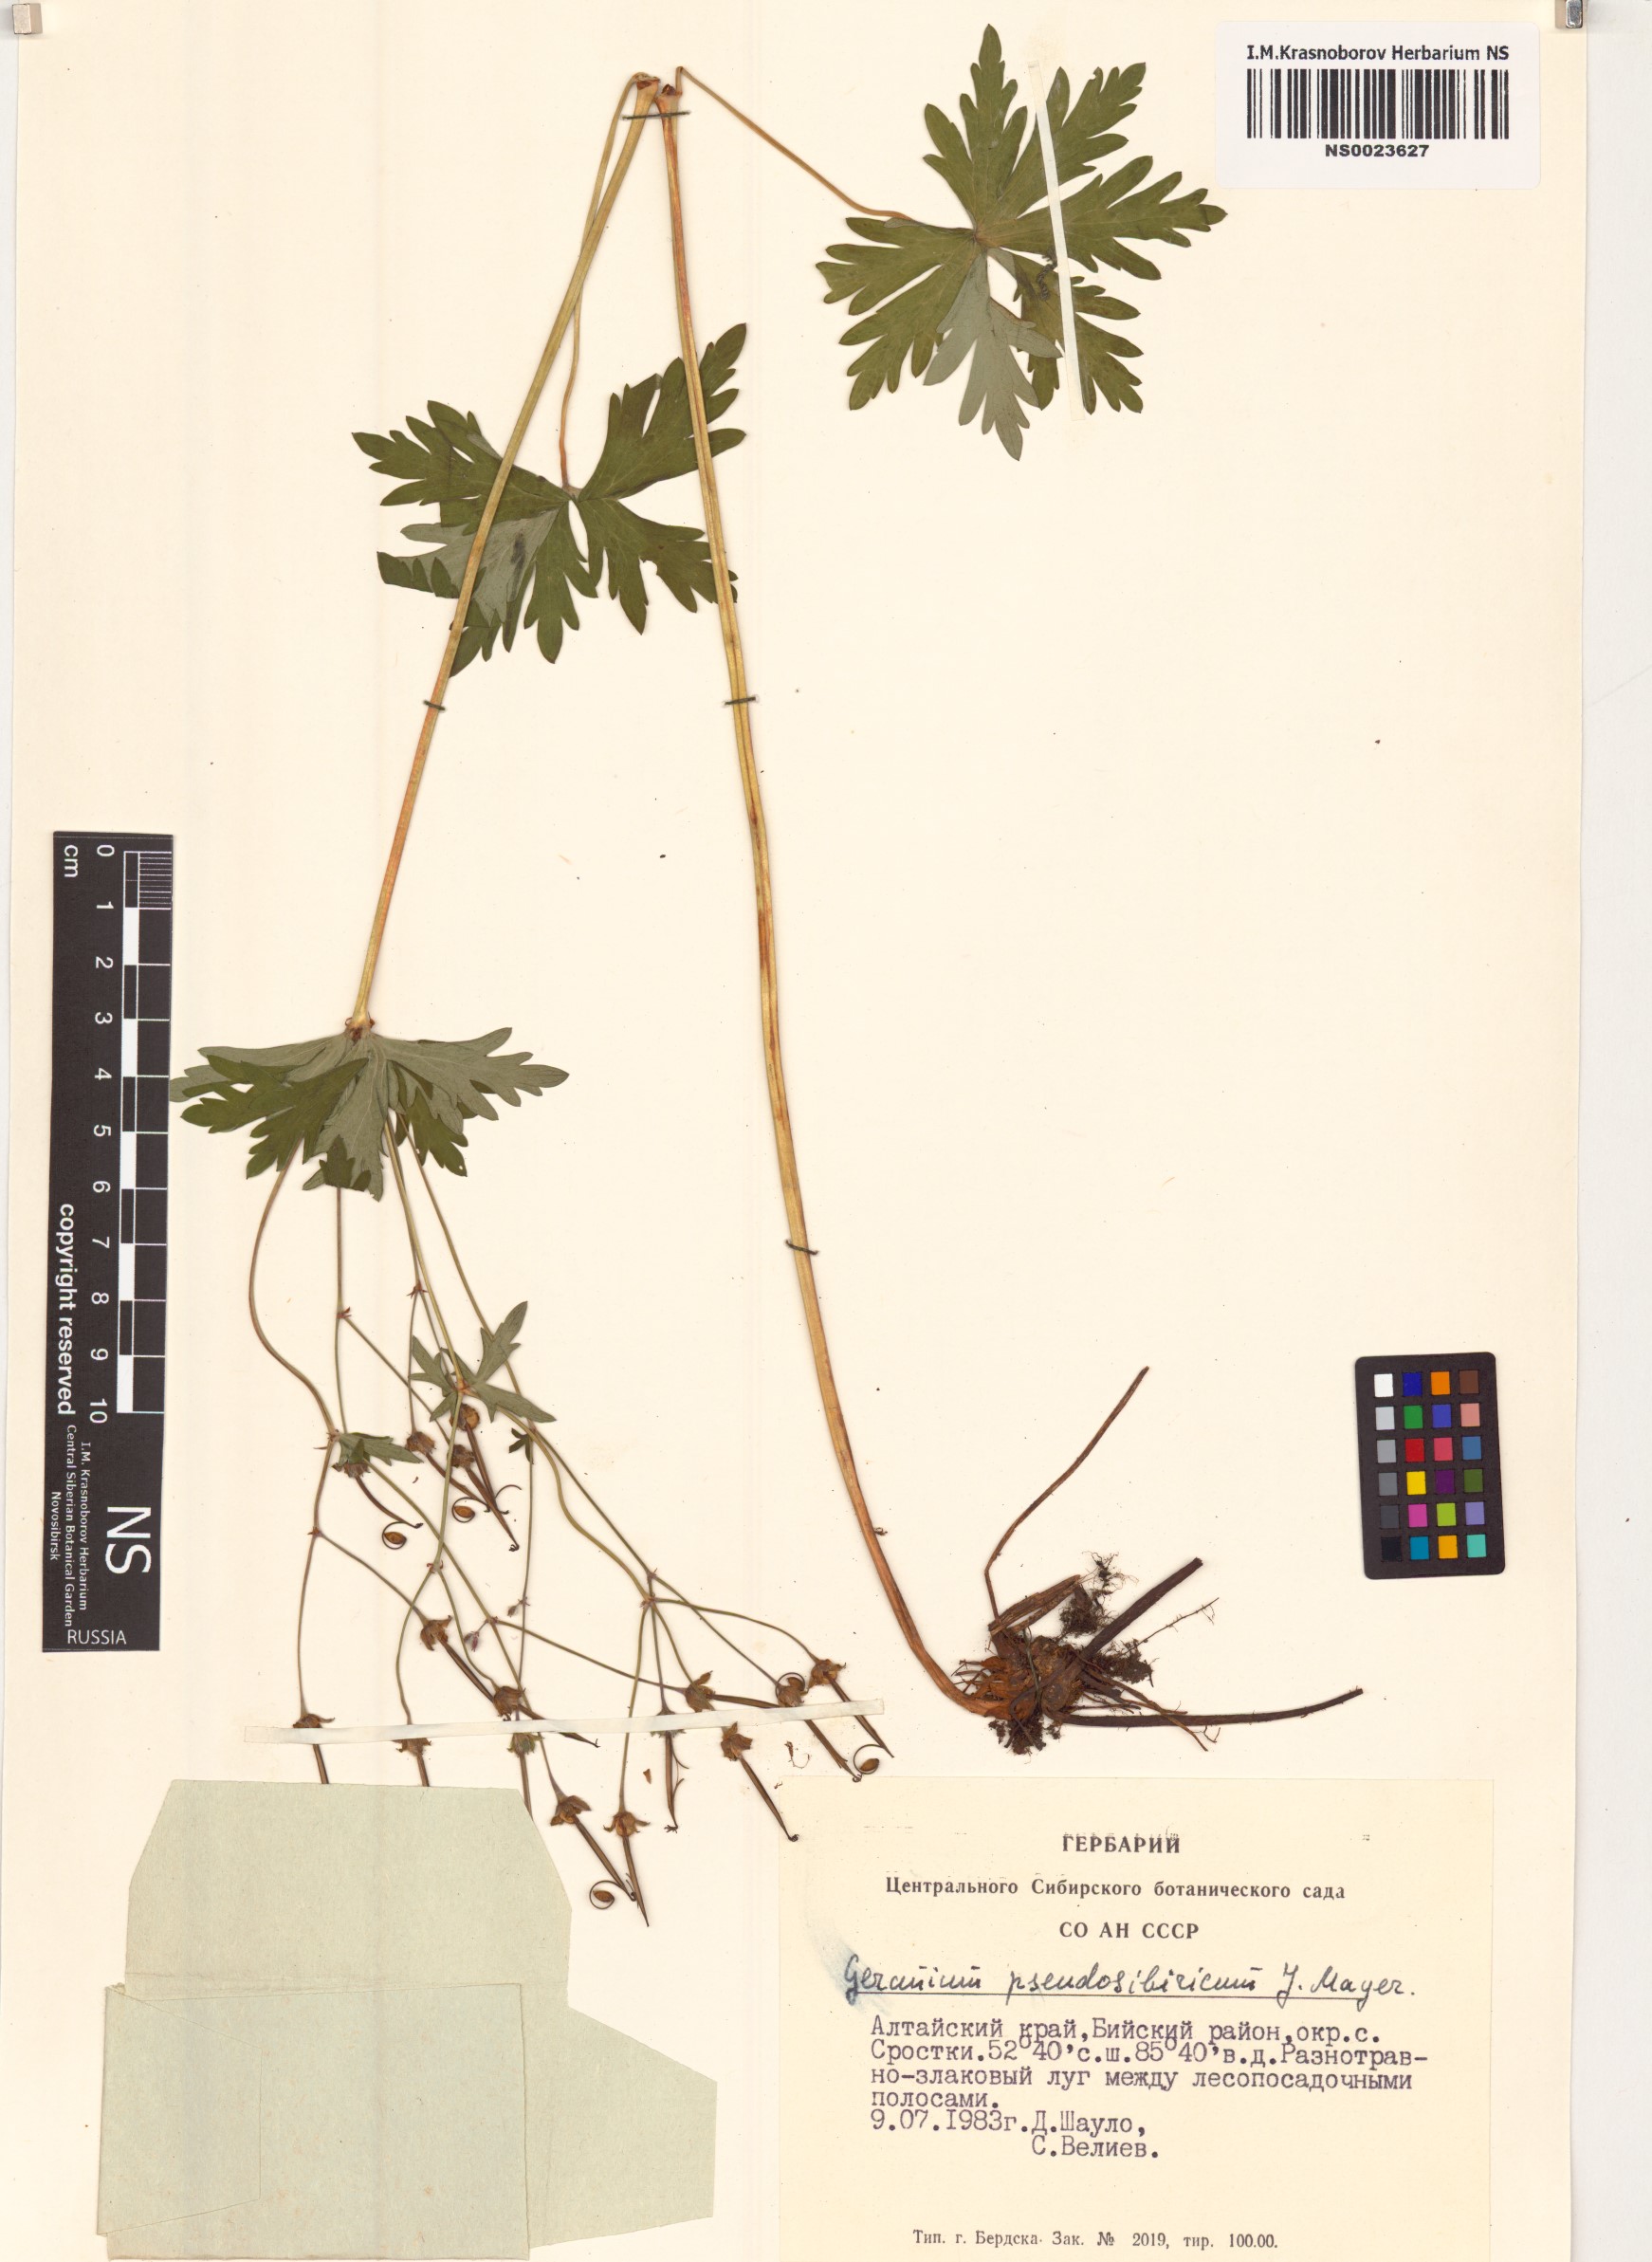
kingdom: Plantae
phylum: Tracheophyta
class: Magnoliopsida
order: Geraniales
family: Geraniaceae
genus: Geranium
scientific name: Geranium pseudosibiricum
